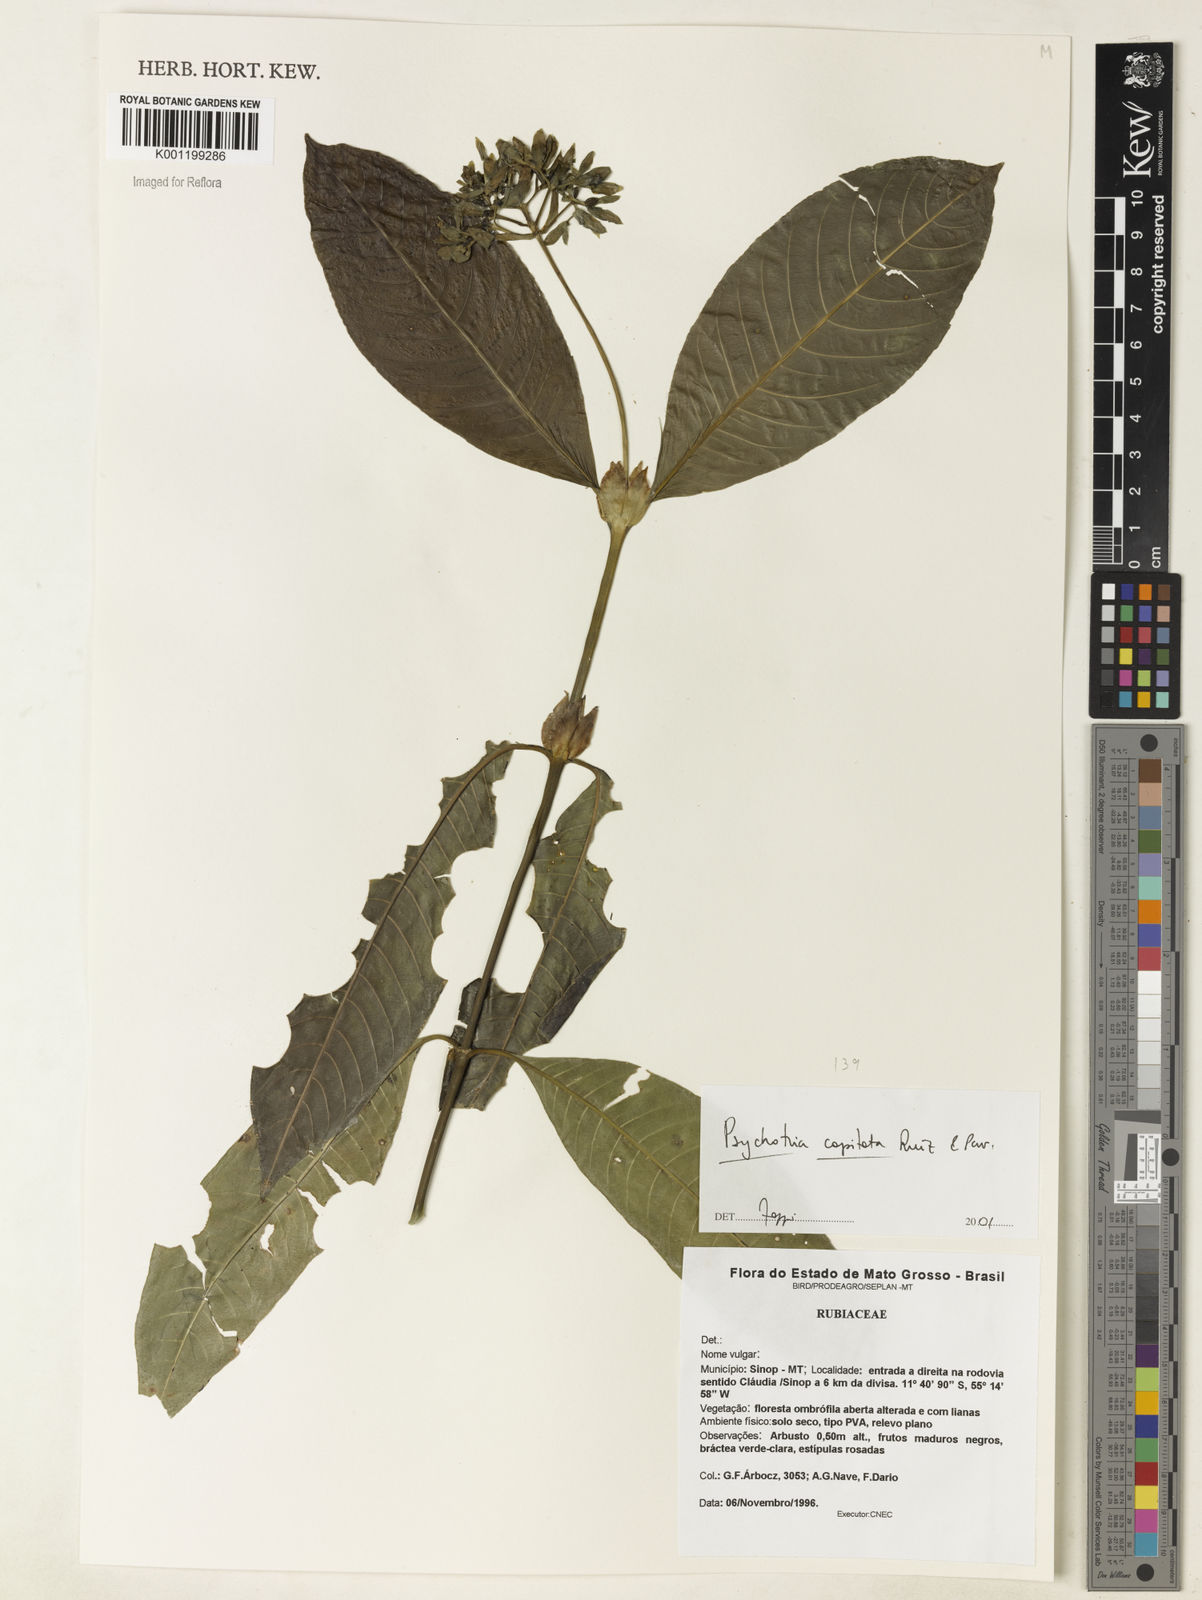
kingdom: Plantae
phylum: Tracheophyta
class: Magnoliopsida
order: Gentianales
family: Rubiaceae
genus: Palicourea
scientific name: Palicourea violacea
